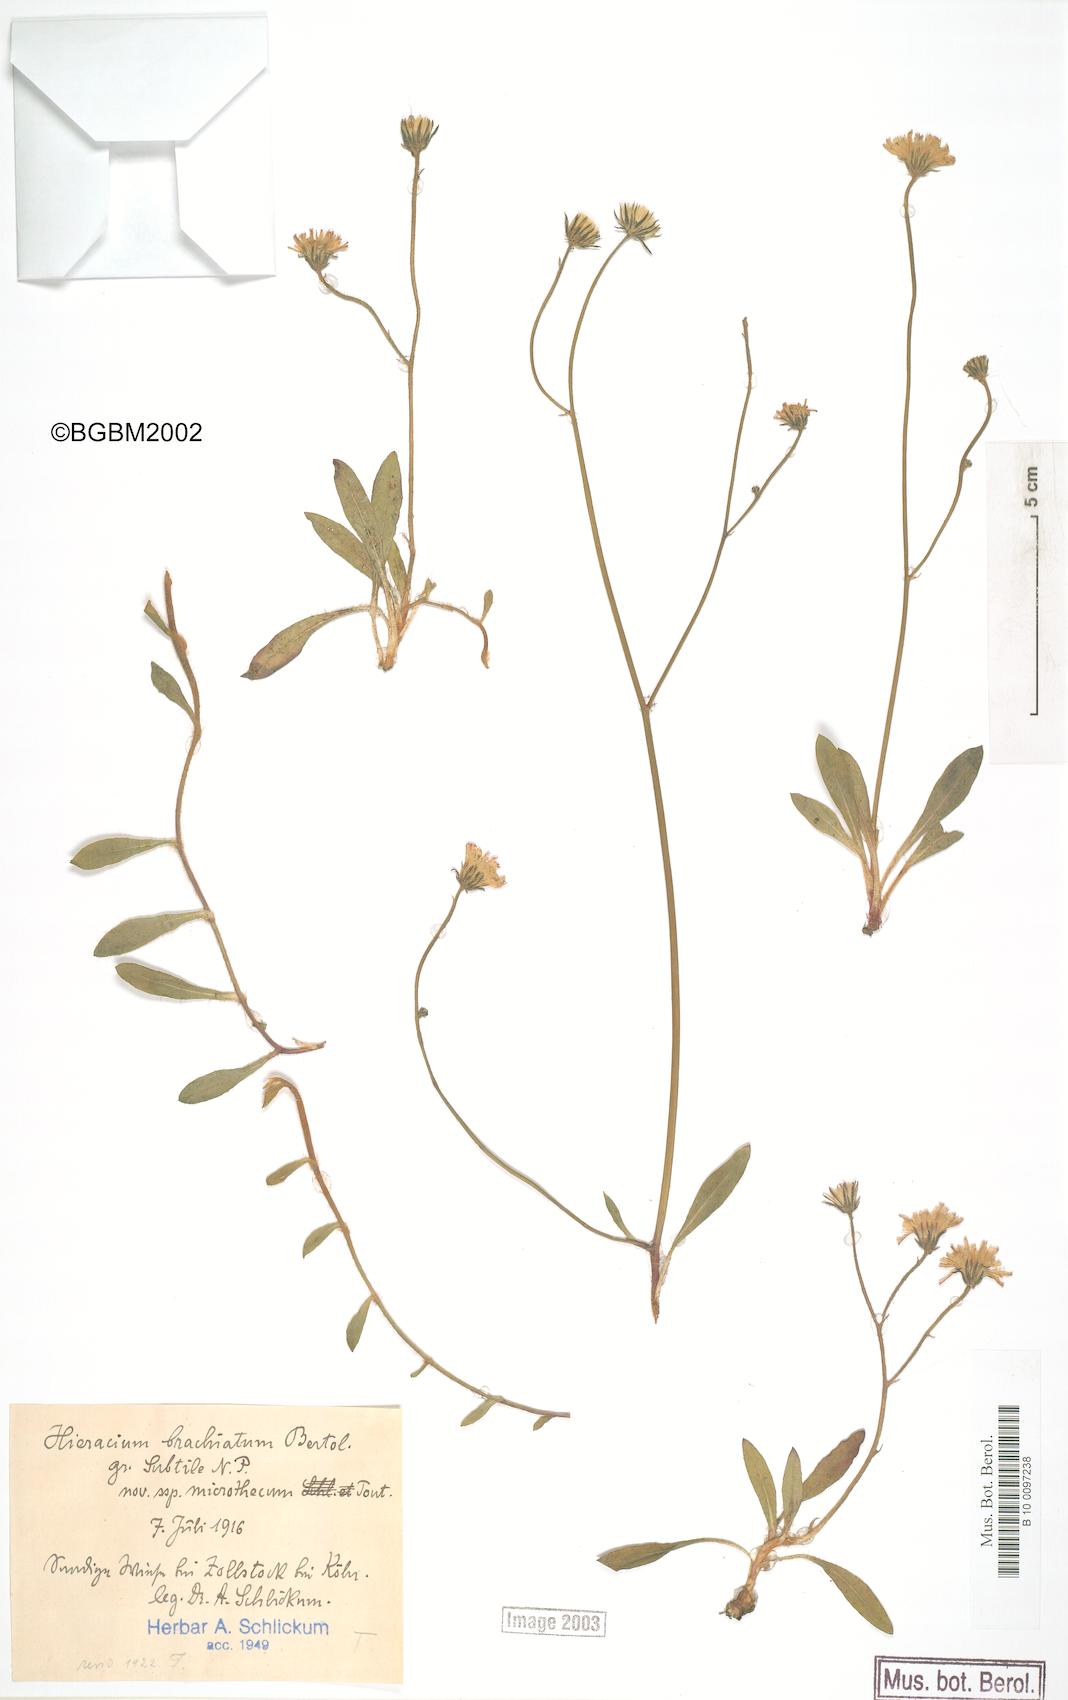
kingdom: Plantae
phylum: Tracheophyta
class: Magnoliopsida
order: Asterales
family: Asteraceae
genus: Pilosella
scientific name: Pilosella acutifolia
